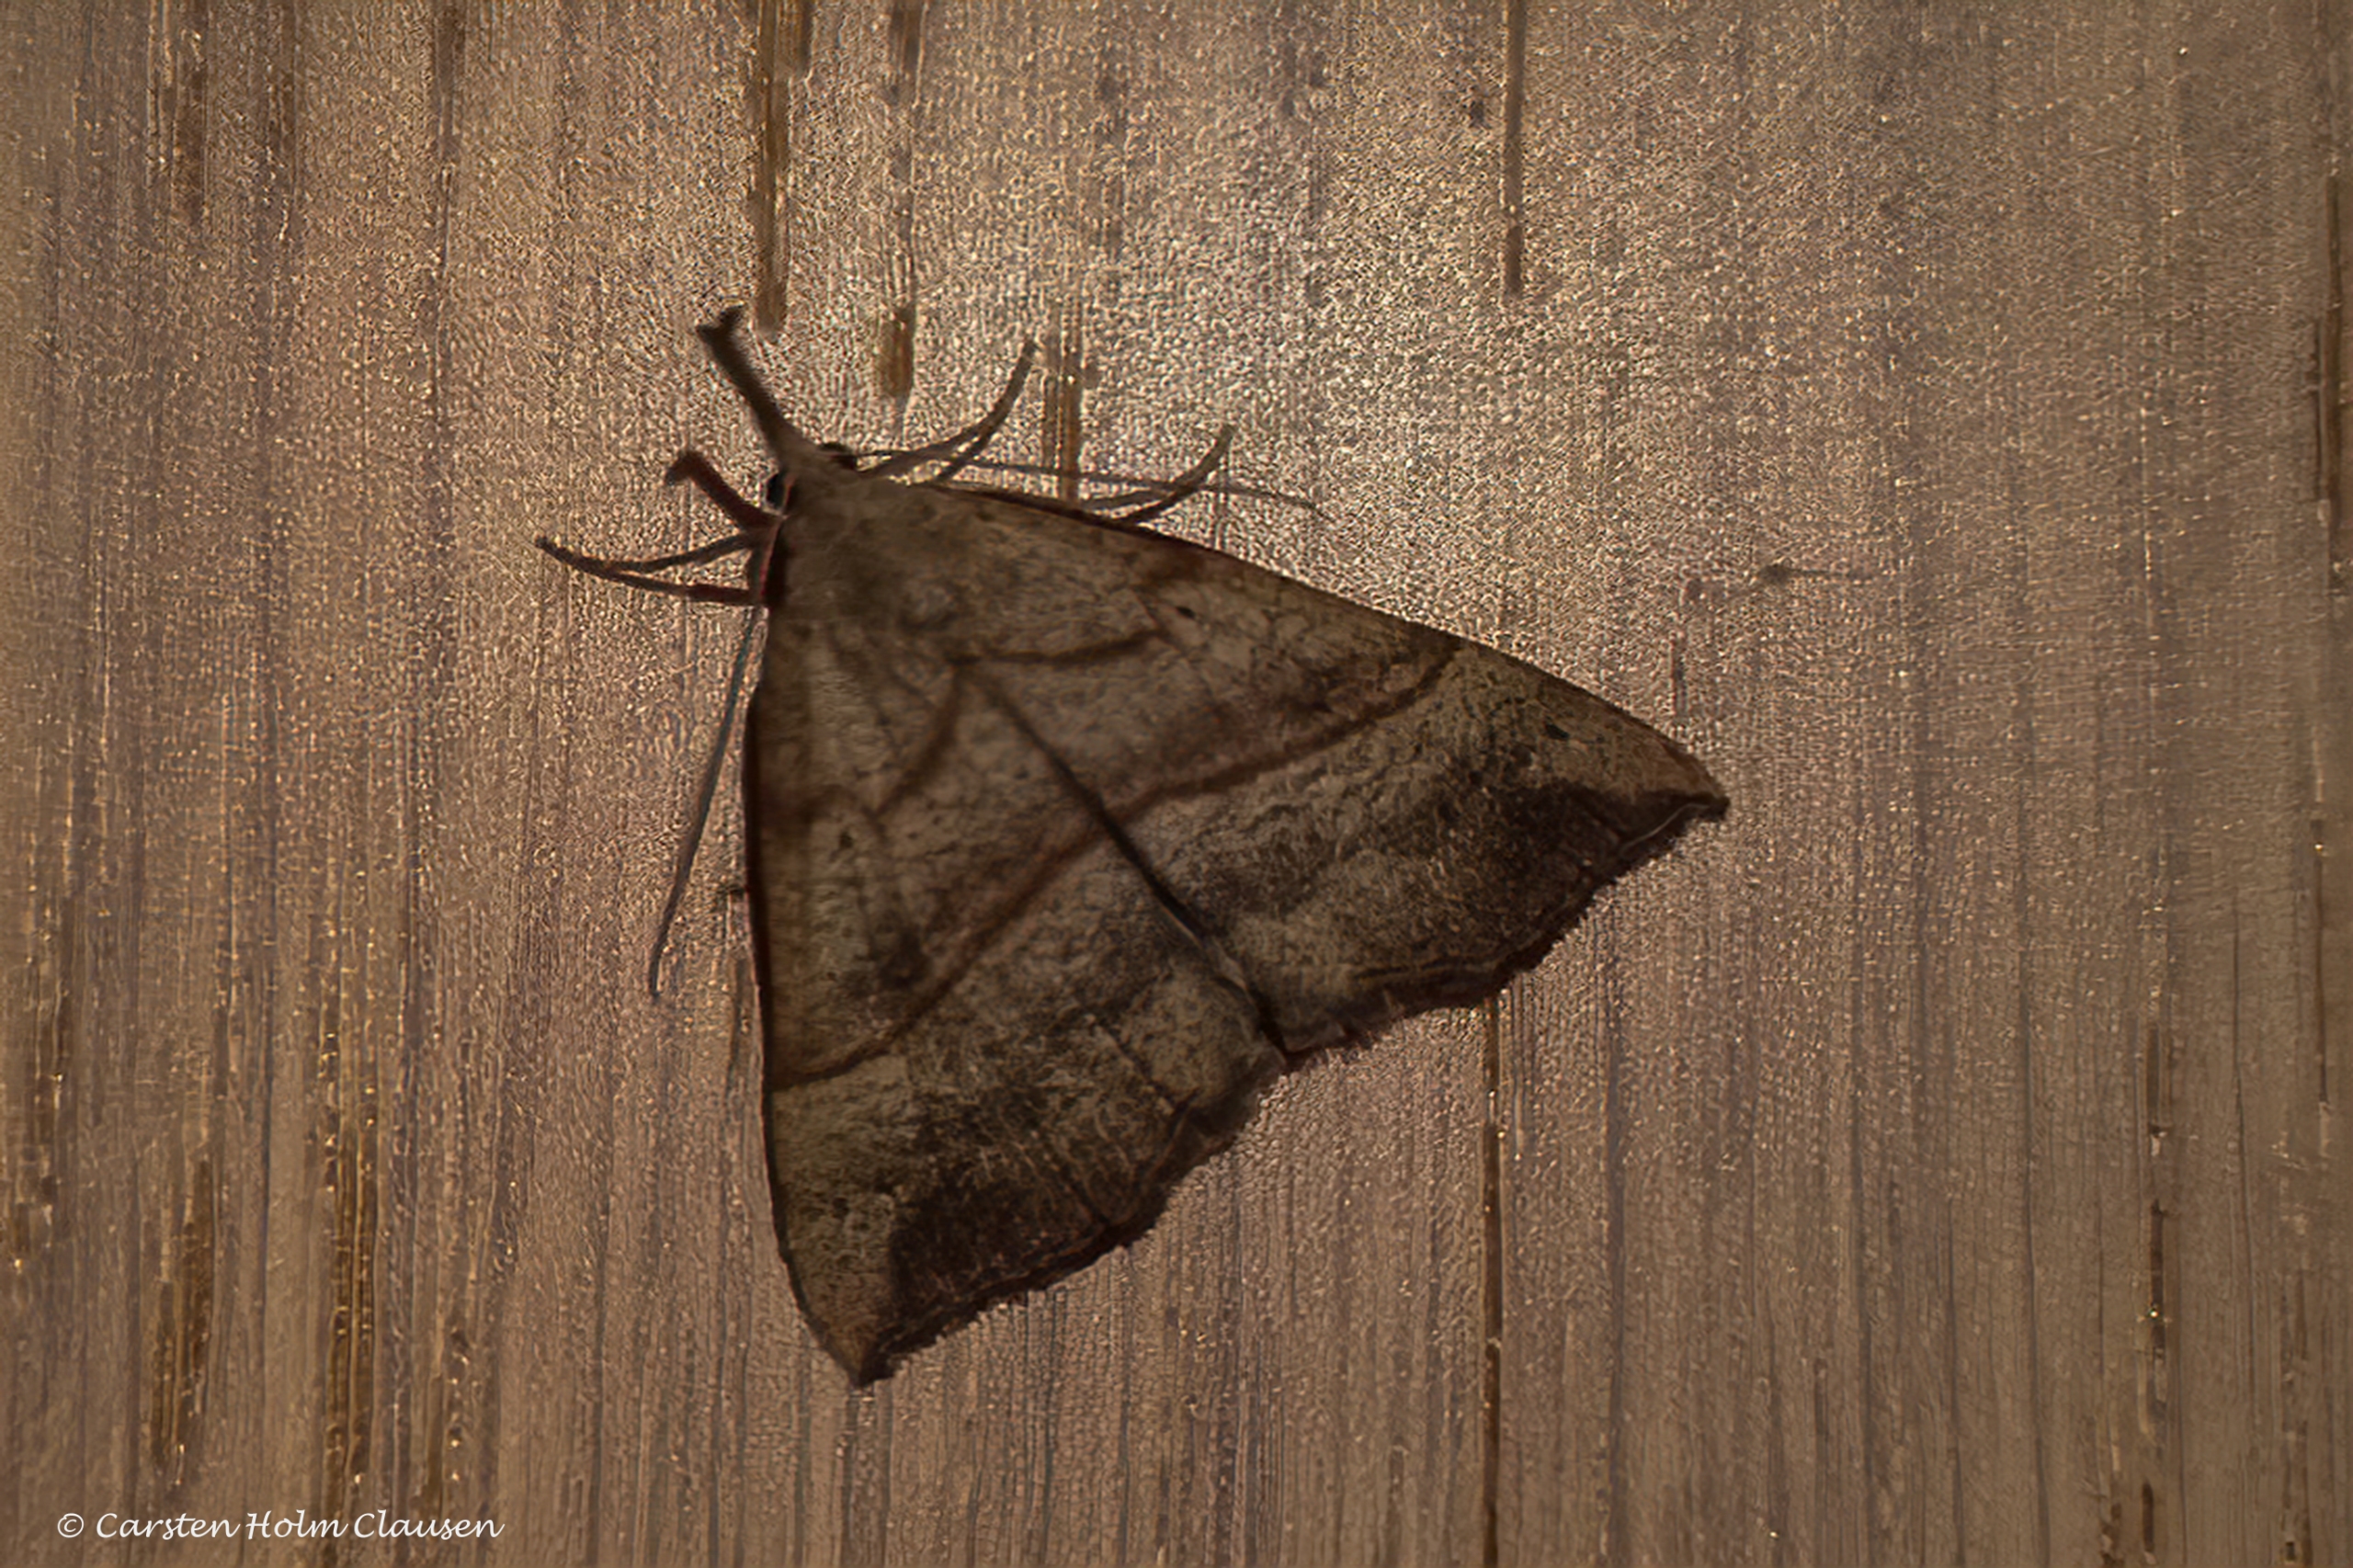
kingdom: Animalia
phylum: Arthropoda
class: Insecta
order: Lepidoptera
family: Erebidae
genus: Hypena
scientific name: Hypena proboscidalis
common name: Snudeugle
